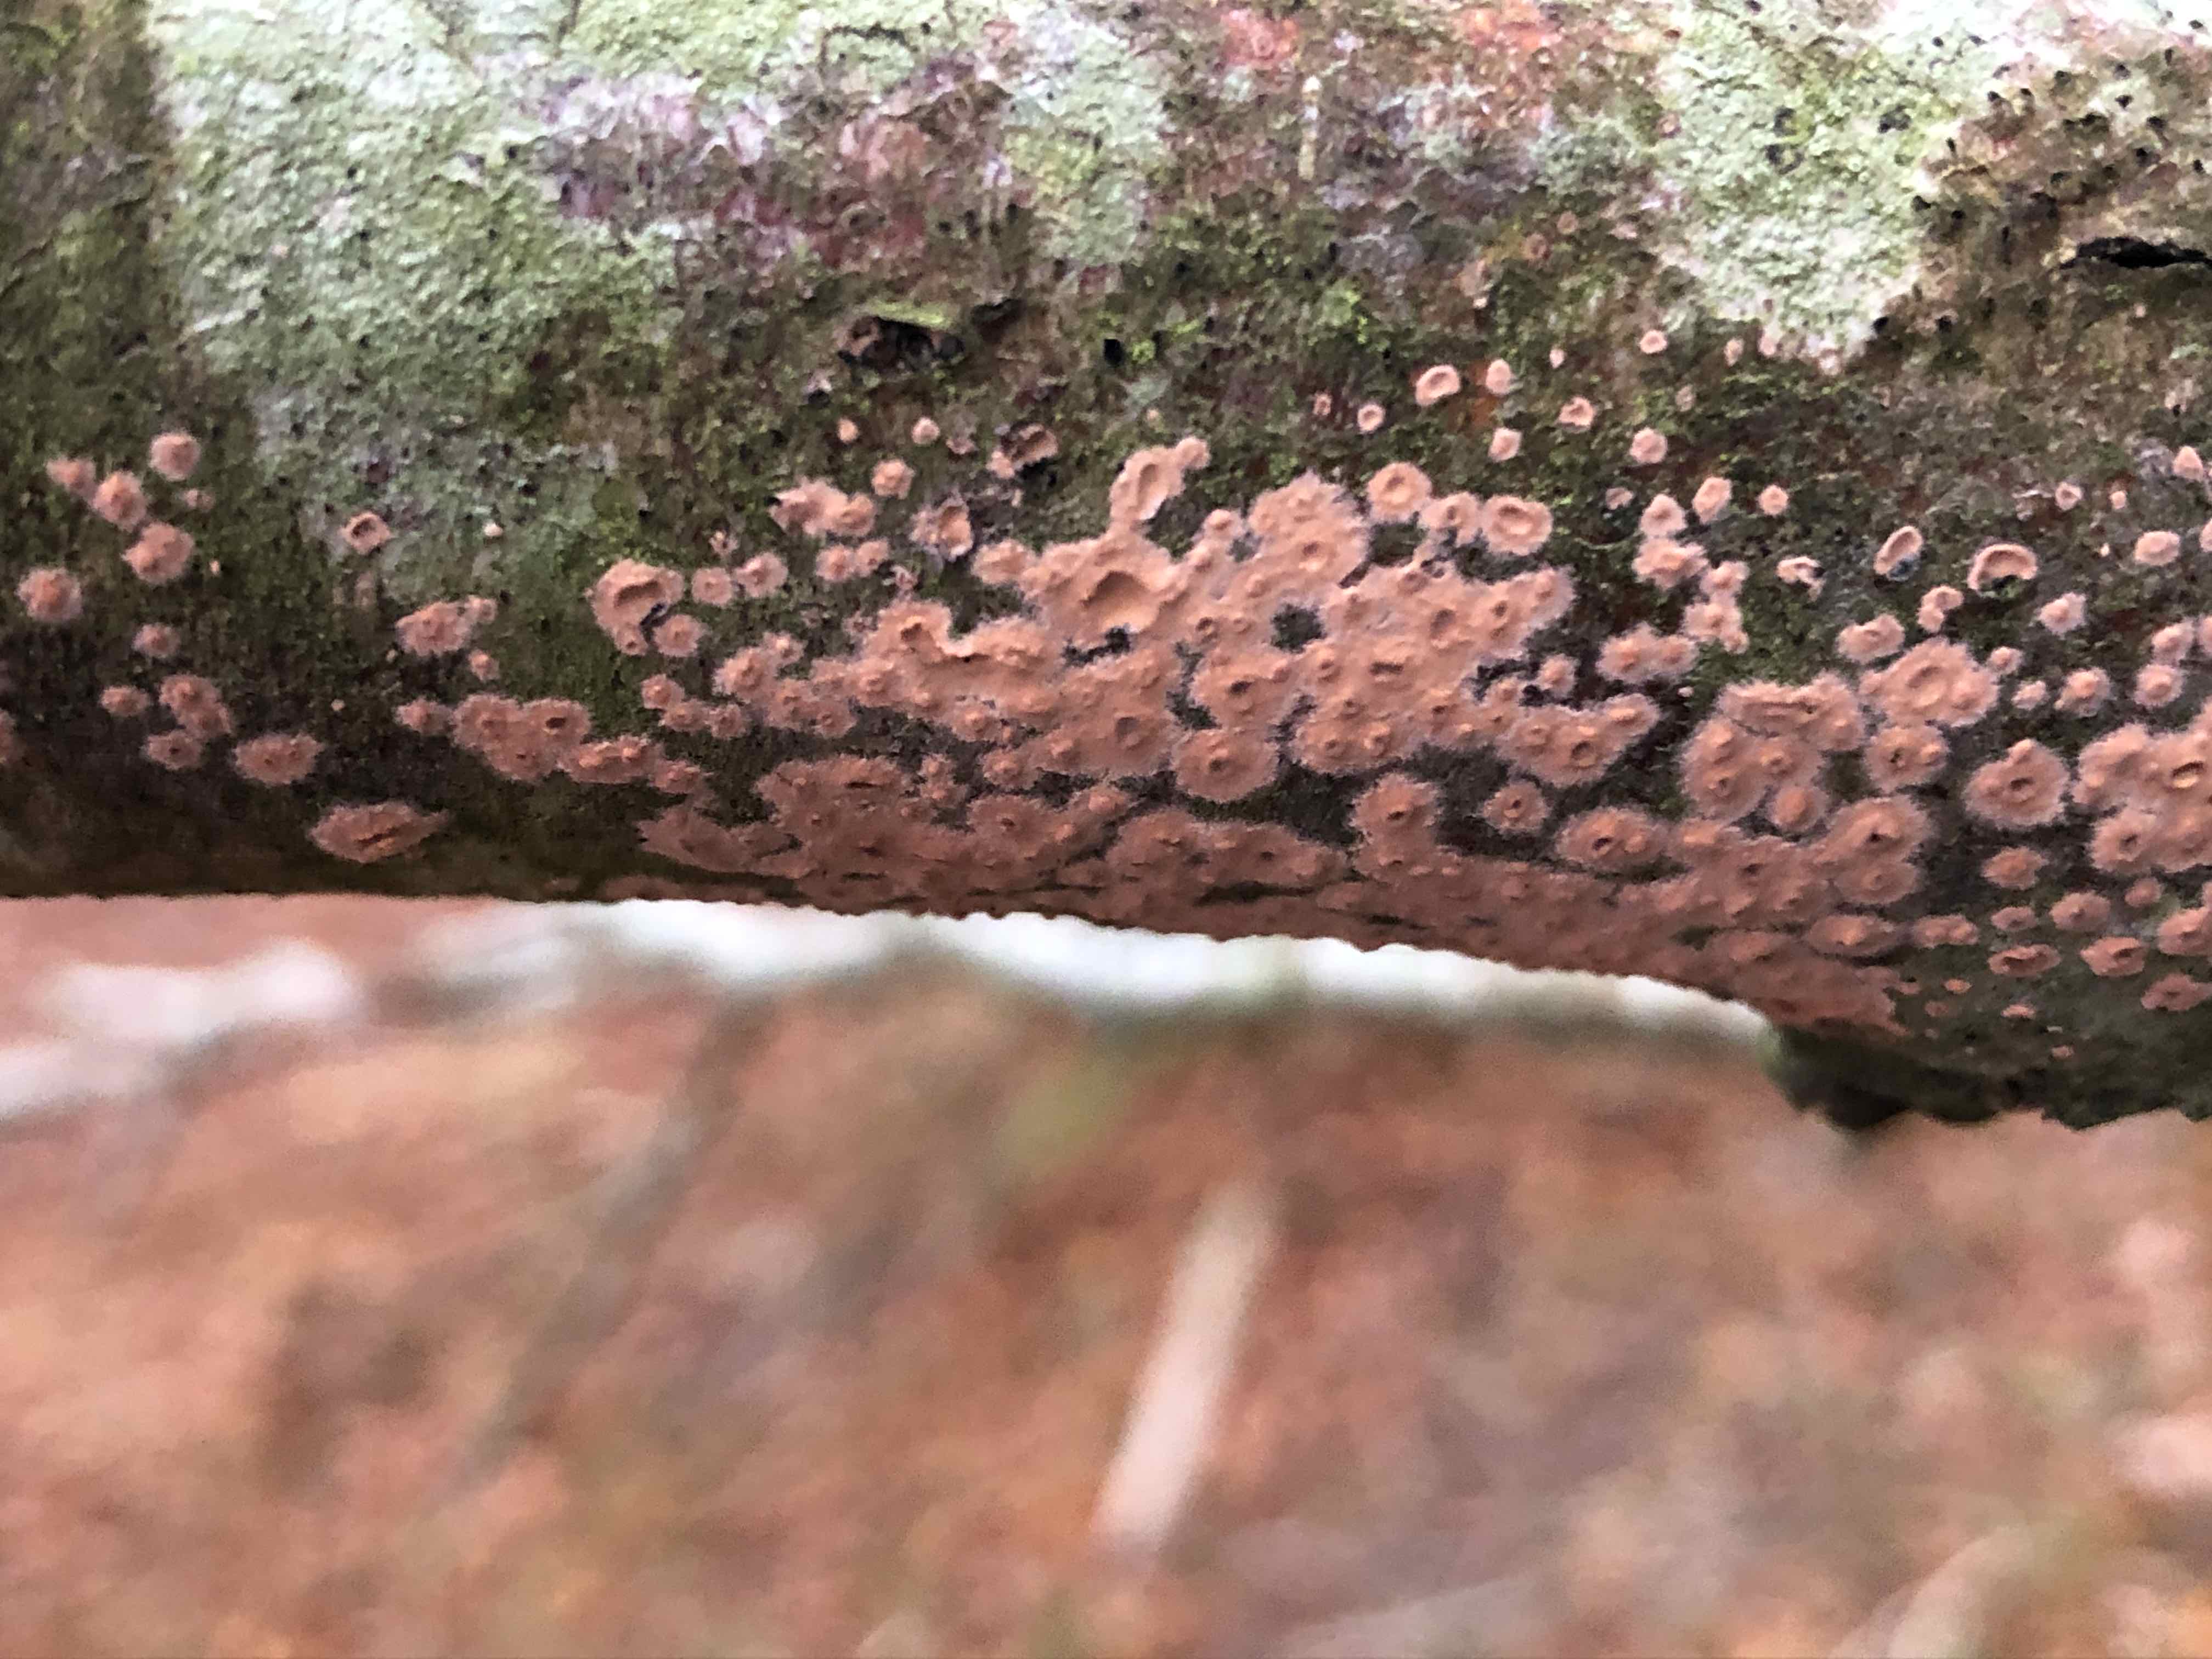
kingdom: Fungi
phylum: Basidiomycota
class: Agaricomycetes
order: Russulales
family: Peniophoraceae
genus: Peniophora
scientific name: Peniophora incarnata
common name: laksefarvet voksskind
